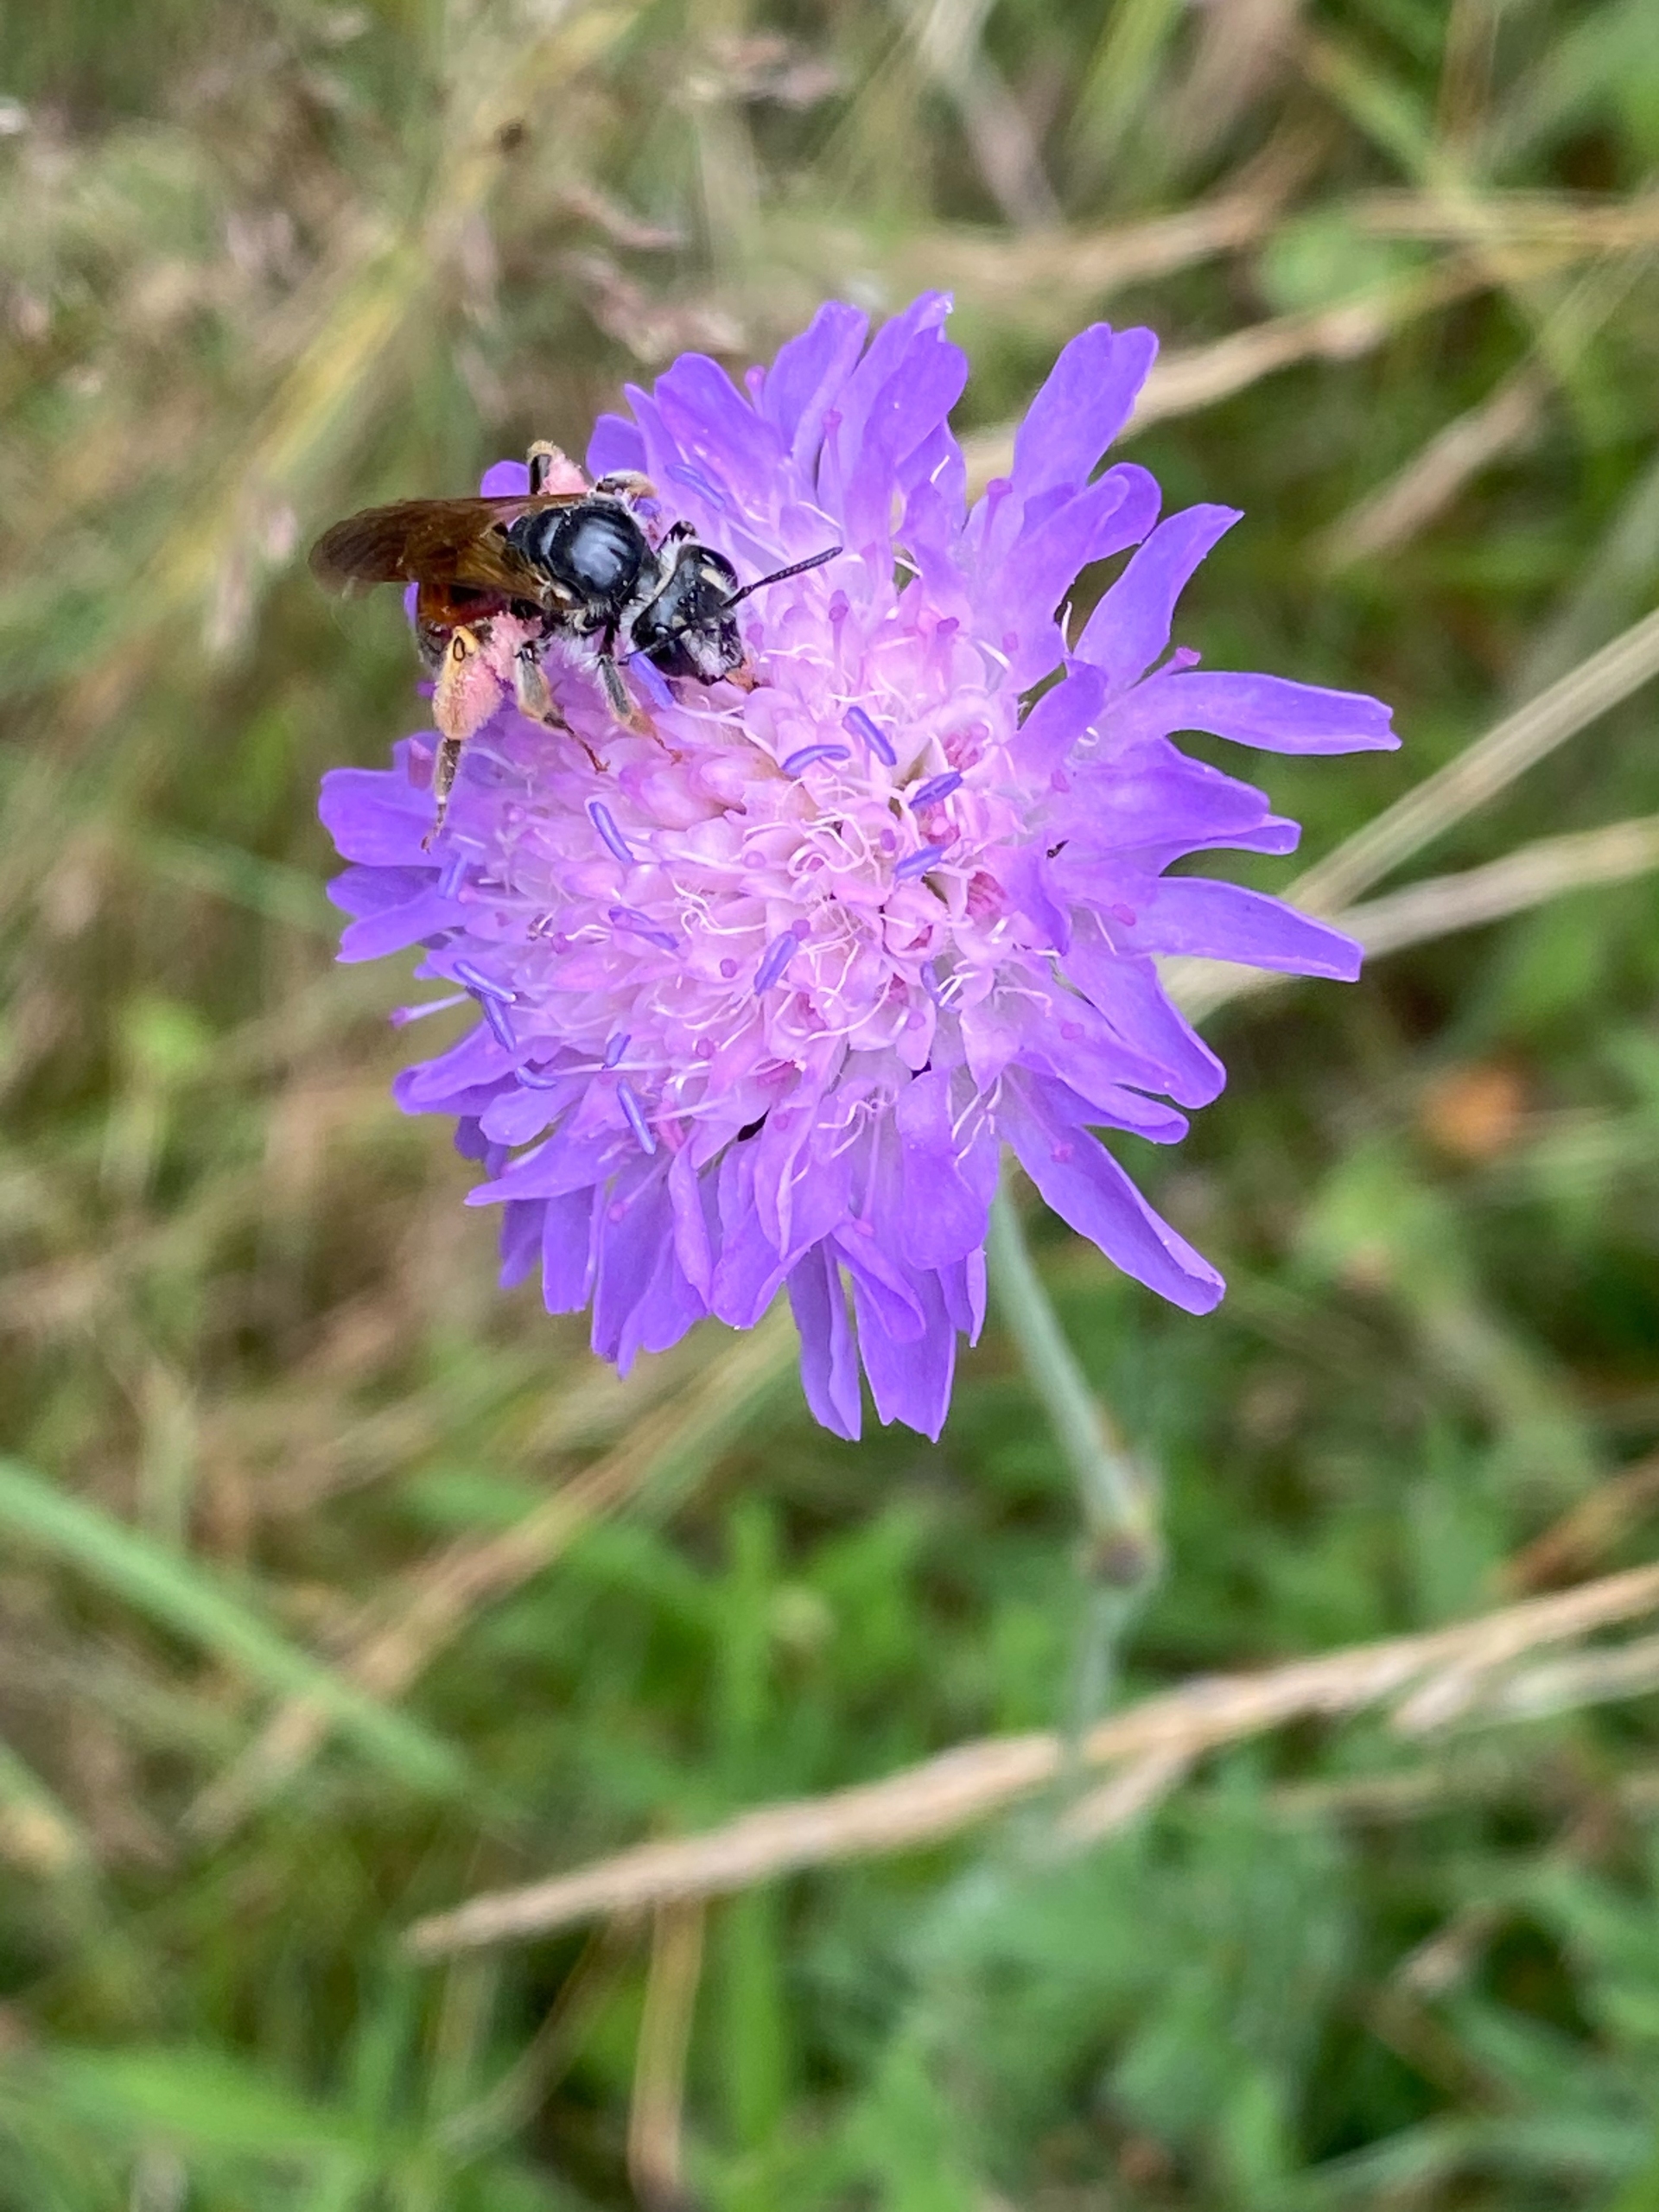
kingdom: Animalia
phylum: Arthropoda
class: Insecta
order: Hymenoptera
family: Andrenidae
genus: Andrena
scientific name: Andrena hattorfiana
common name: Blåhatjordbi
